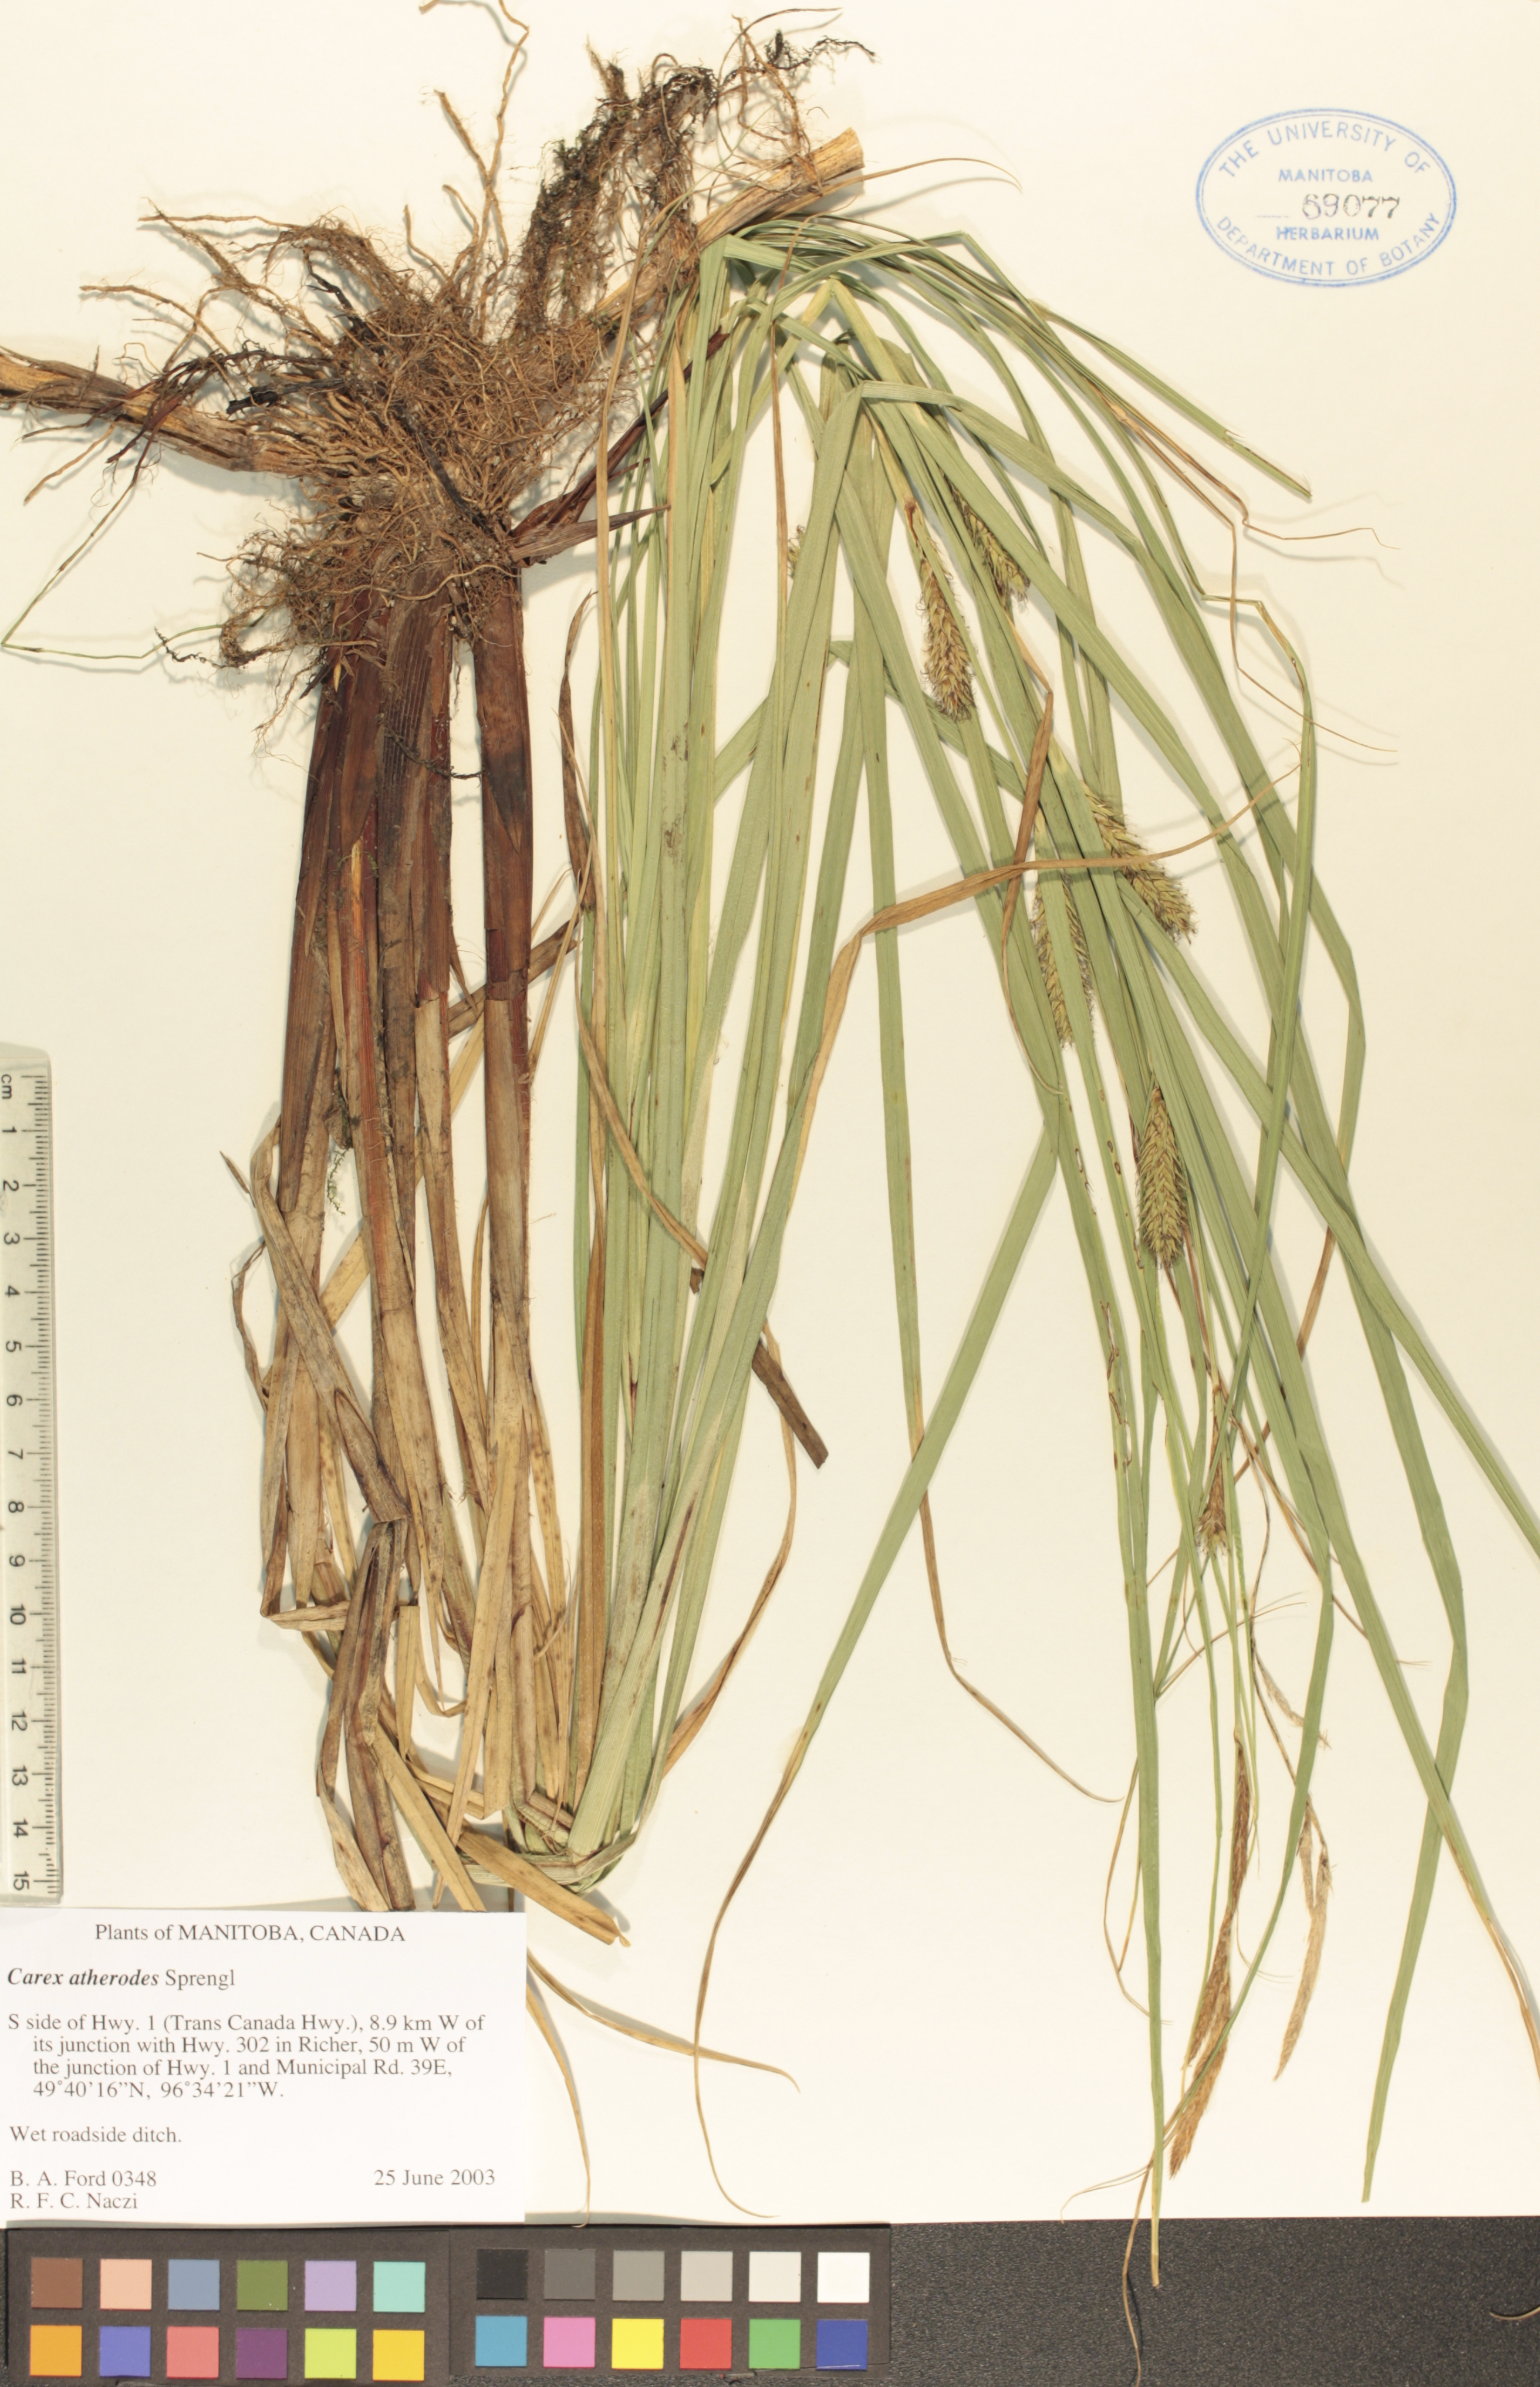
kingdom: Plantae
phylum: Tracheophyta
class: Liliopsida
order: Poales
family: Cyperaceae
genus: Carex
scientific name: Carex atherodes
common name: Wheat sedge
